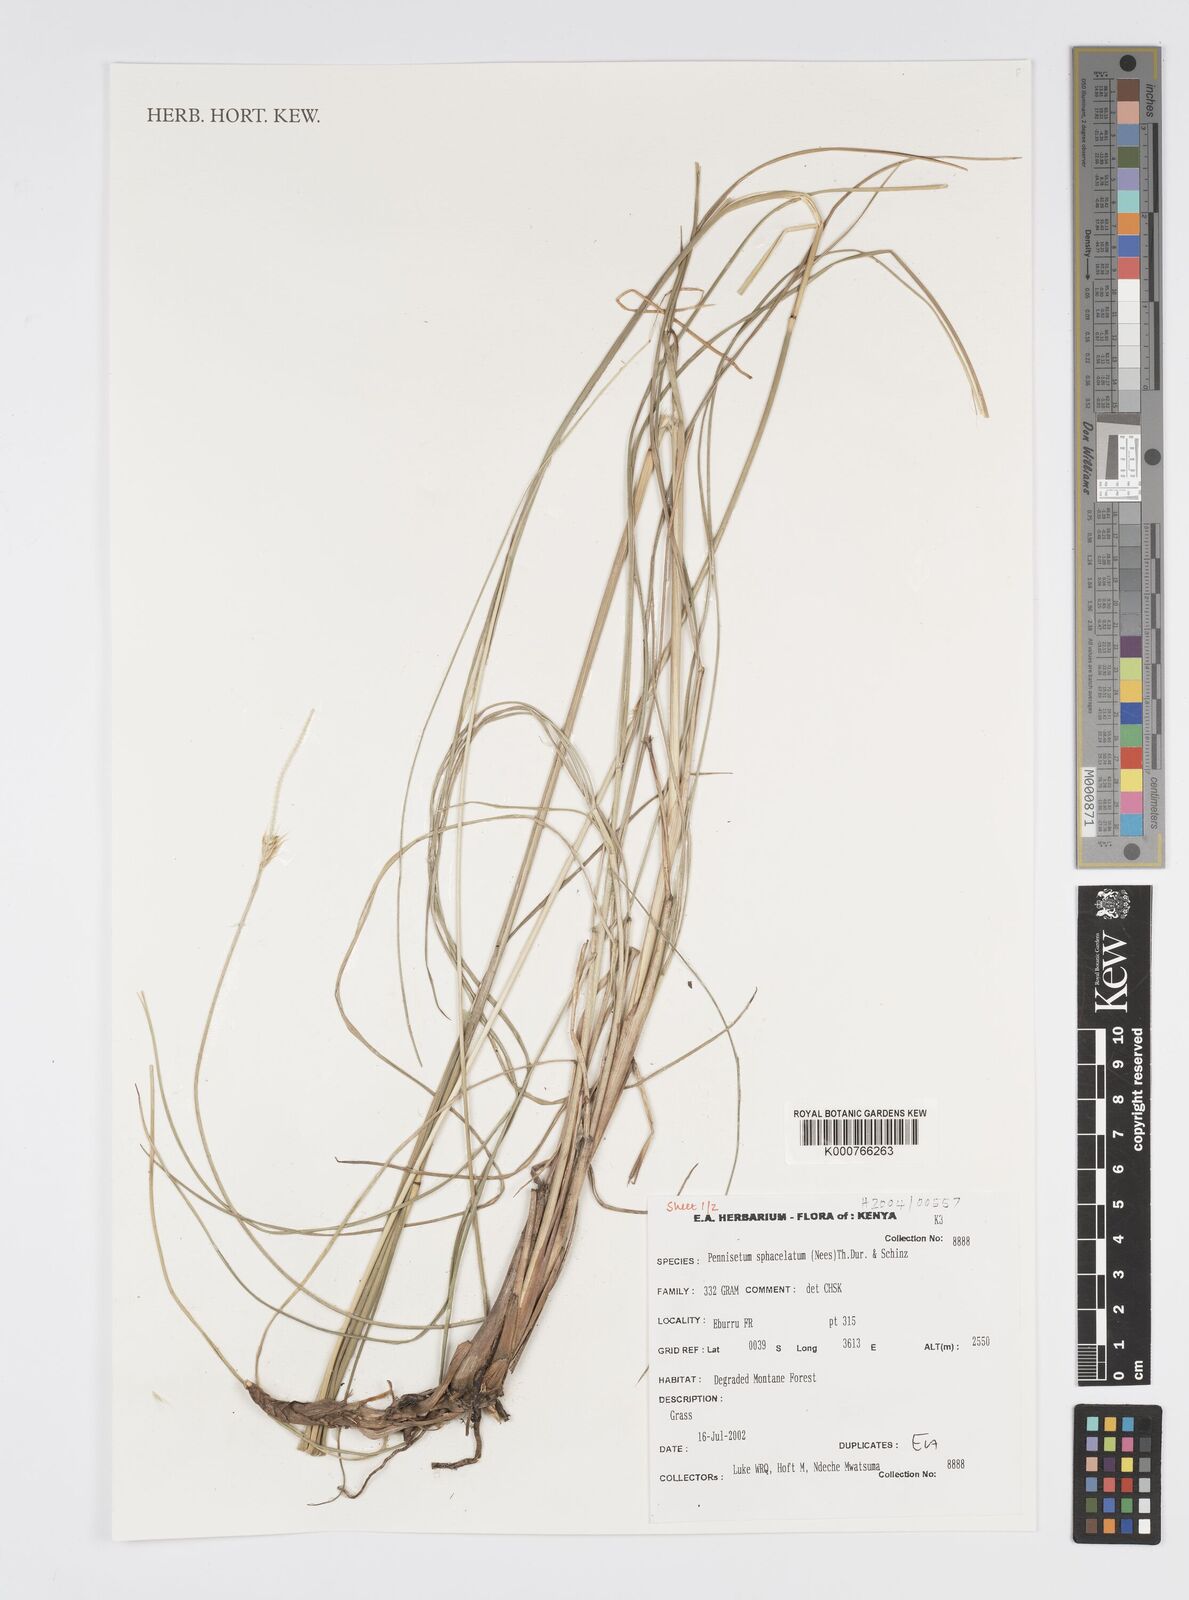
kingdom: Plantae
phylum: Tracheophyta
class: Liliopsida
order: Poales
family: Poaceae
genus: Cenchrus
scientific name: Cenchrus sphacelatus
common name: Bulgras
